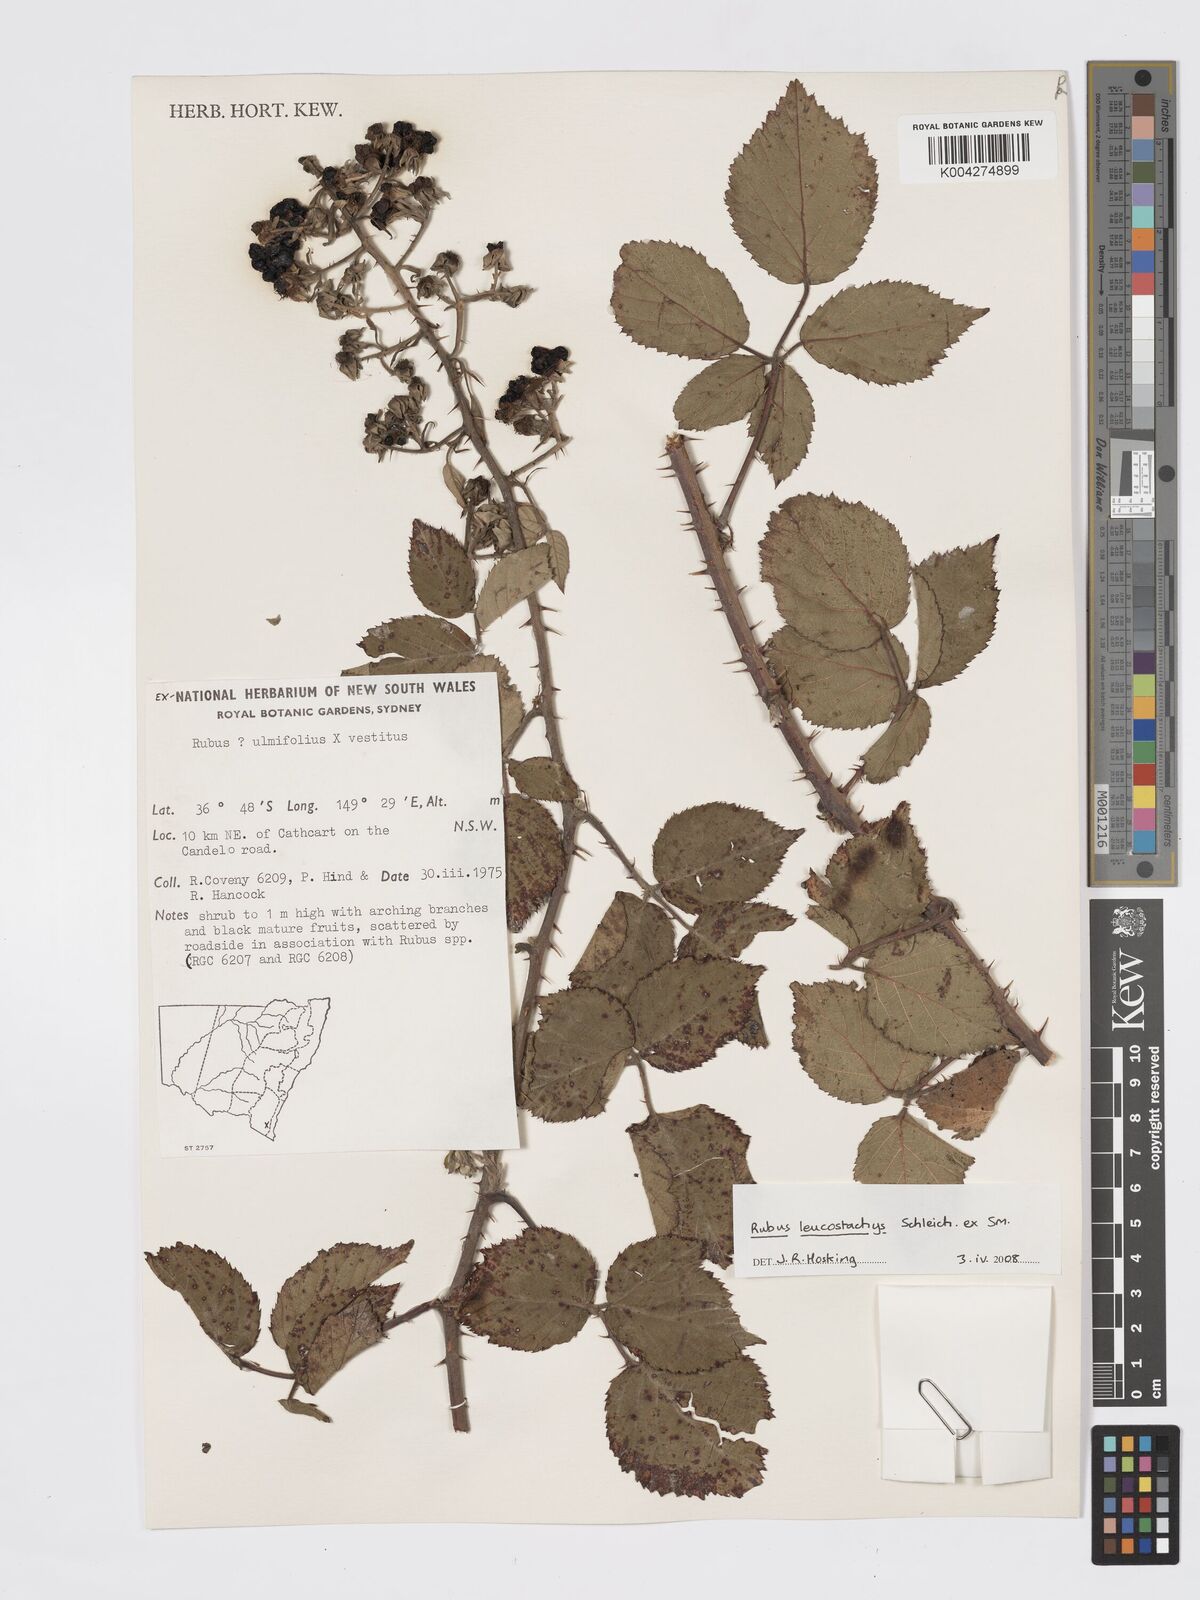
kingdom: Plantae
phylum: Tracheophyta
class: Magnoliopsida
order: Rosales
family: Rosaceae
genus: Rubus
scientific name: Rubus
